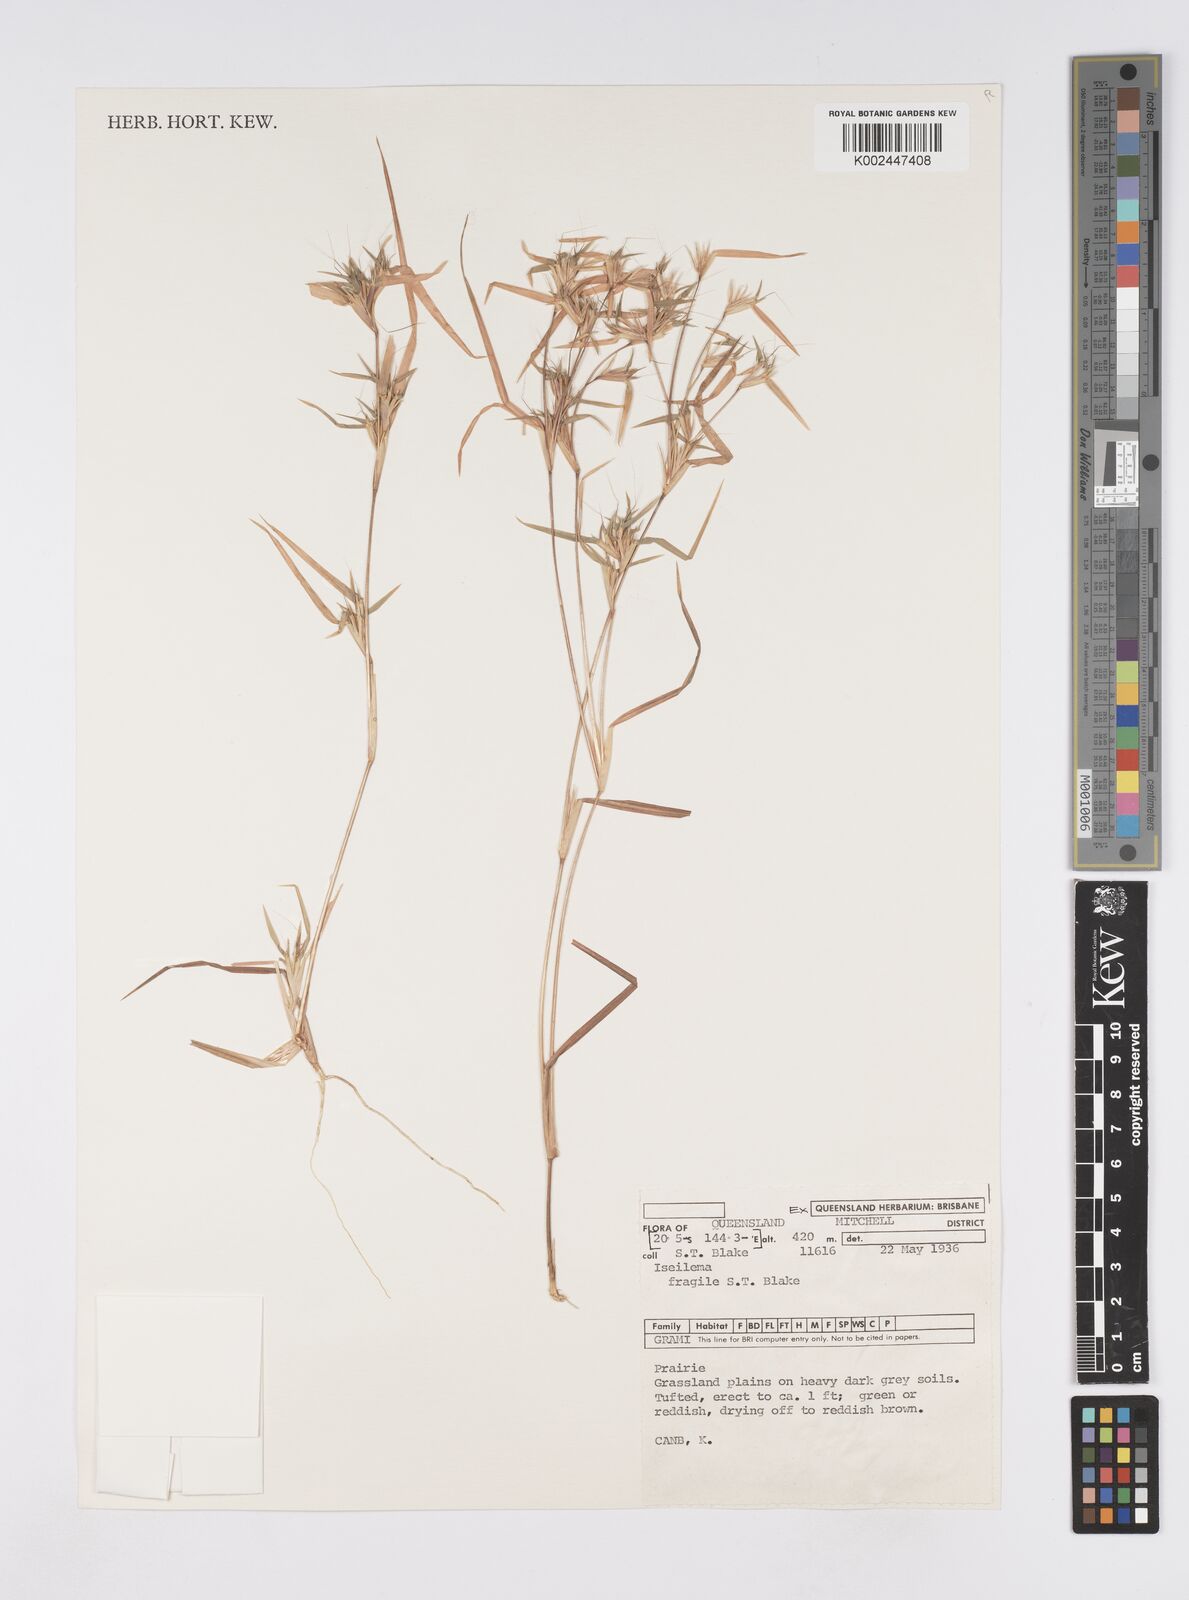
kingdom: Plantae
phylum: Tracheophyta
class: Liliopsida
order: Poales
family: Poaceae
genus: Iseilema
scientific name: Iseilema fragile
